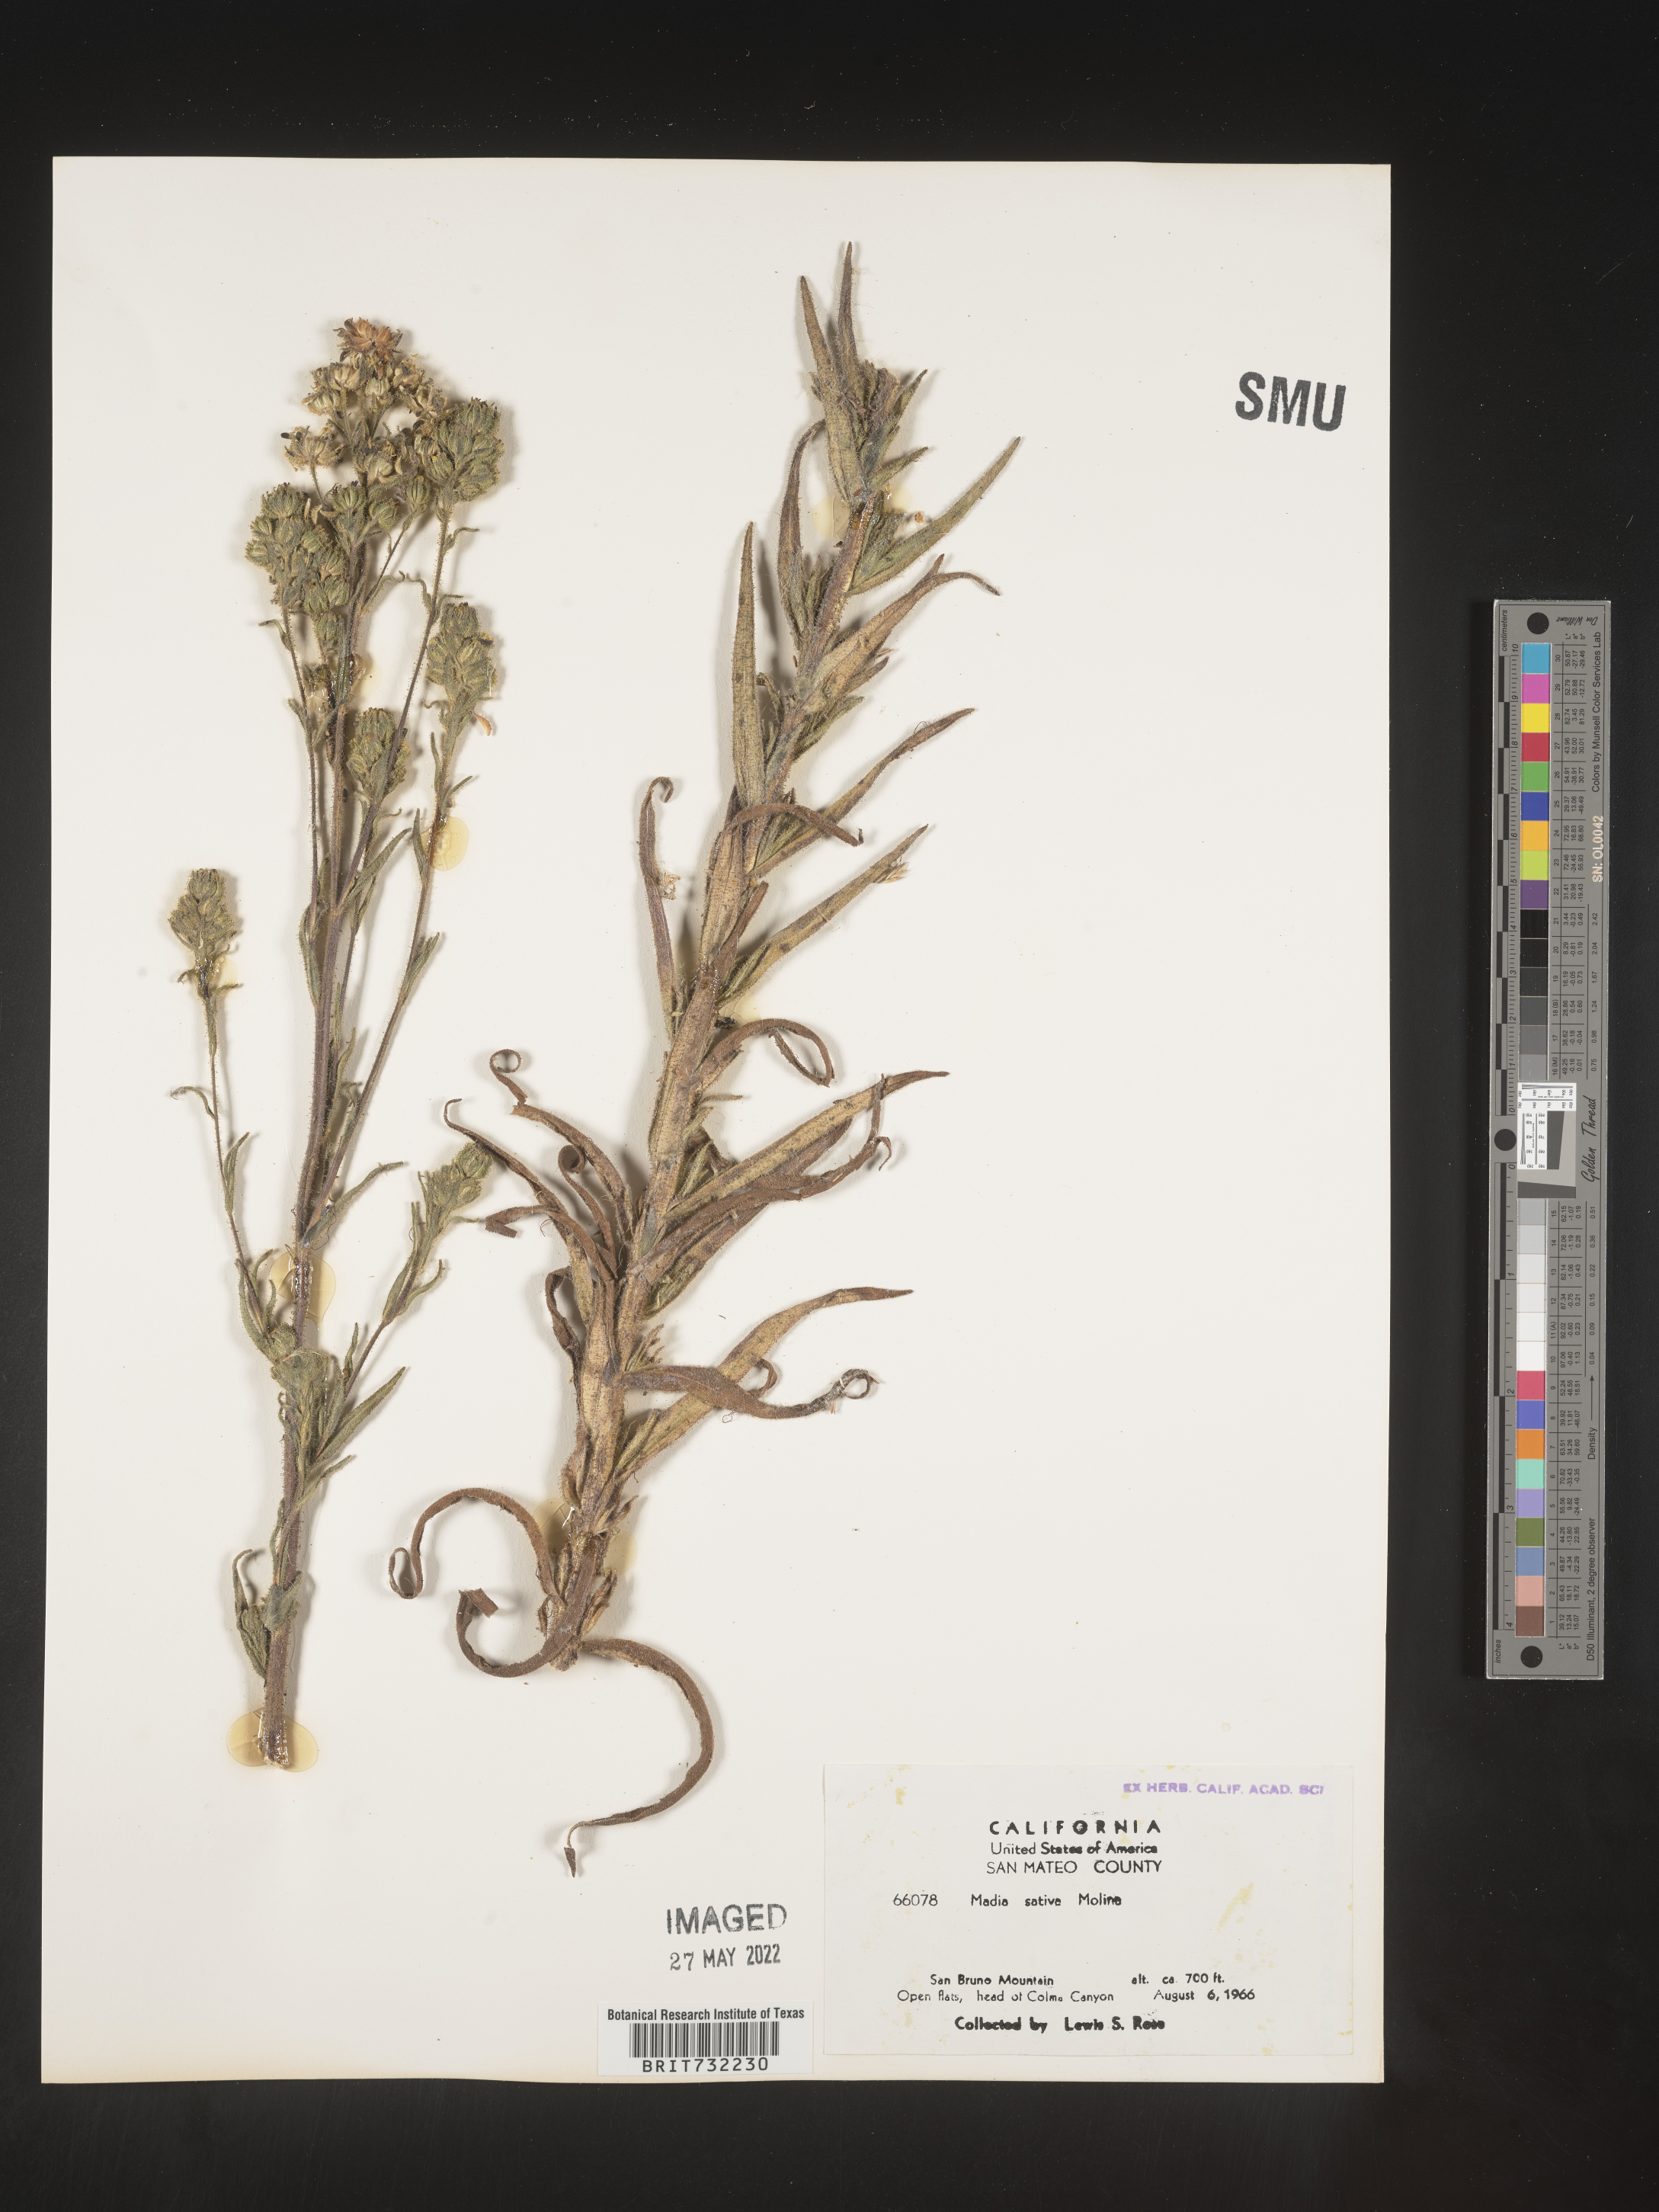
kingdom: Plantae
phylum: Tracheophyta
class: Magnoliopsida
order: Asterales
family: Asteraceae
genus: Madia
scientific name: Madia
